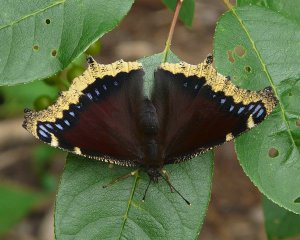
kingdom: Animalia
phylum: Arthropoda
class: Insecta
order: Lepidoptera
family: Nymphalidae
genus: Nymphalis
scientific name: Nymphalis antiopa
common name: Mourning Cloak
